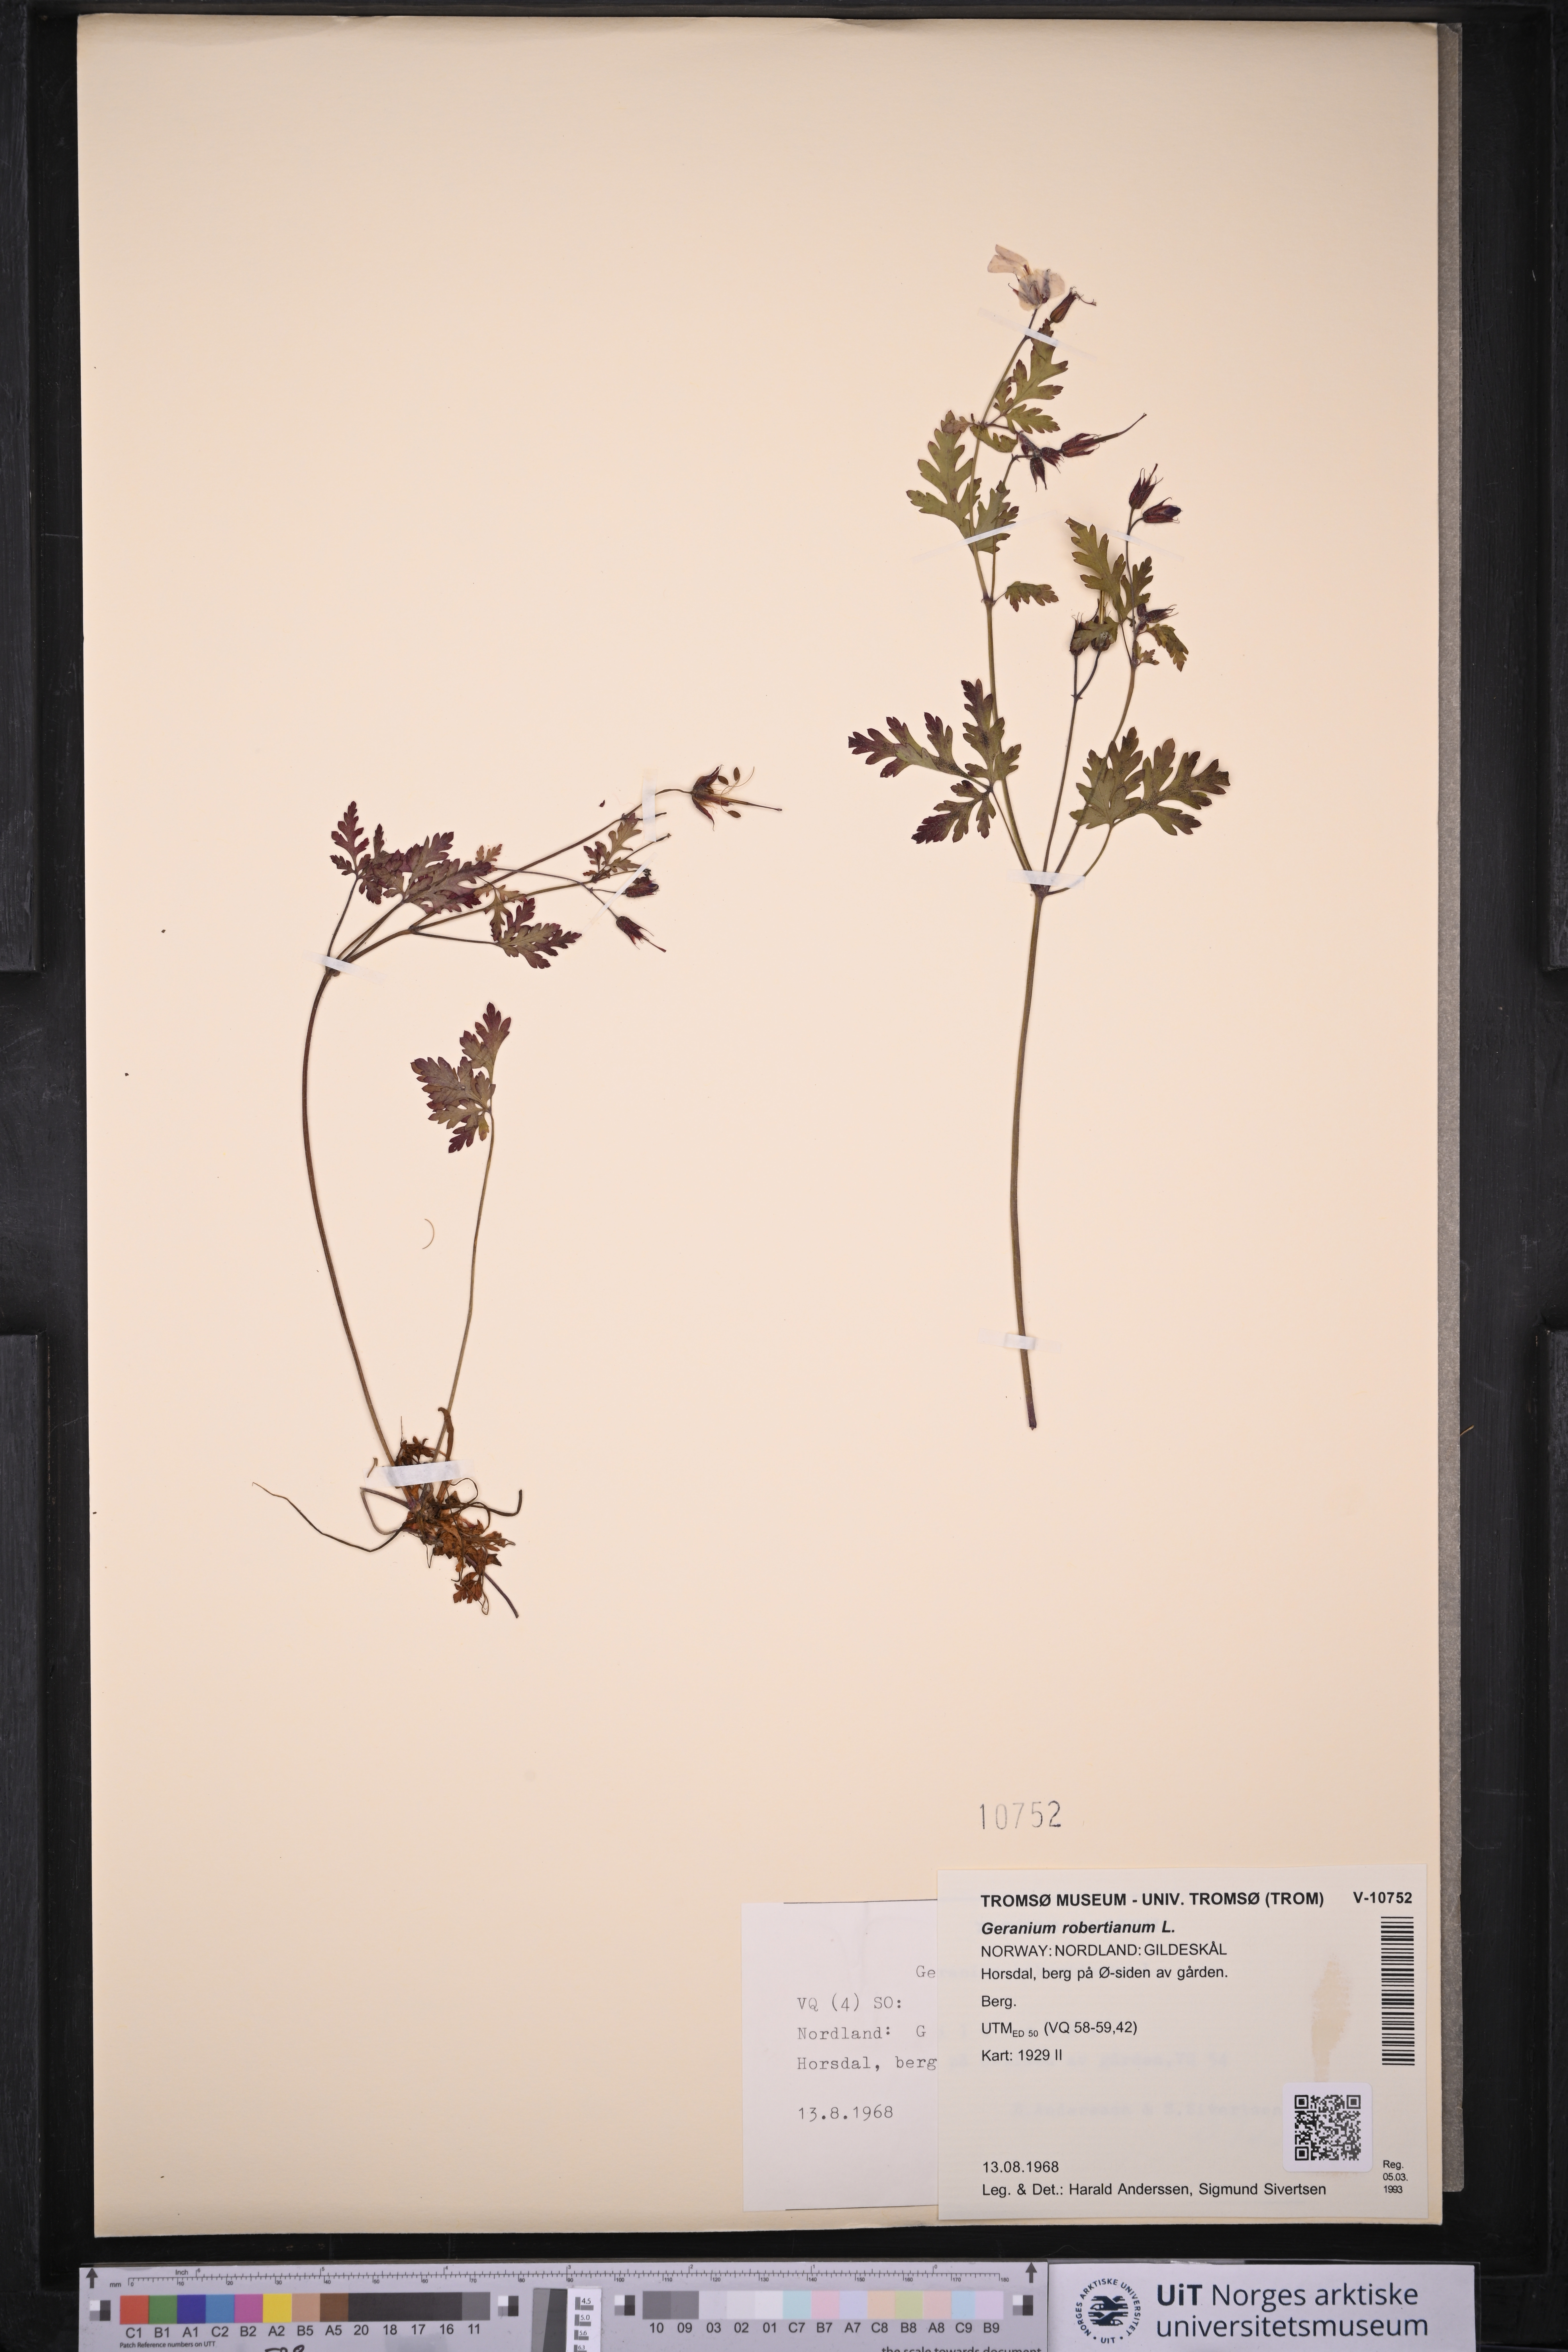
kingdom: Plantae
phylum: Tracheophyta
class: Magnoliopsida
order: Geraniales
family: Geraniaceae
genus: Geranium
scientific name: Geranium robertianum
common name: Herb-robert
